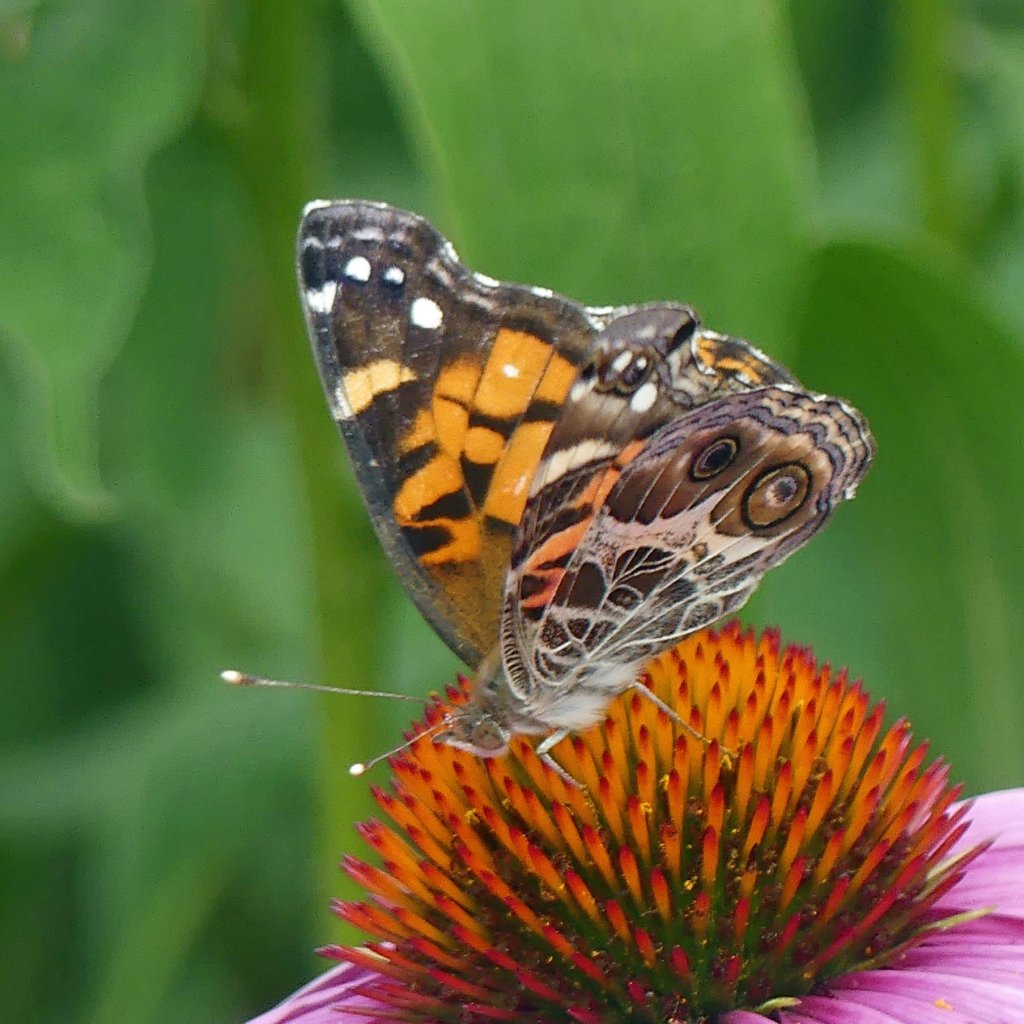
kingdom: Animalia
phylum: Arthropoda
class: Insecta
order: Lepidoptera
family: Nymphalidae
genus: Vanessa
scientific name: Vanessa virginiensis
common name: American Lady
